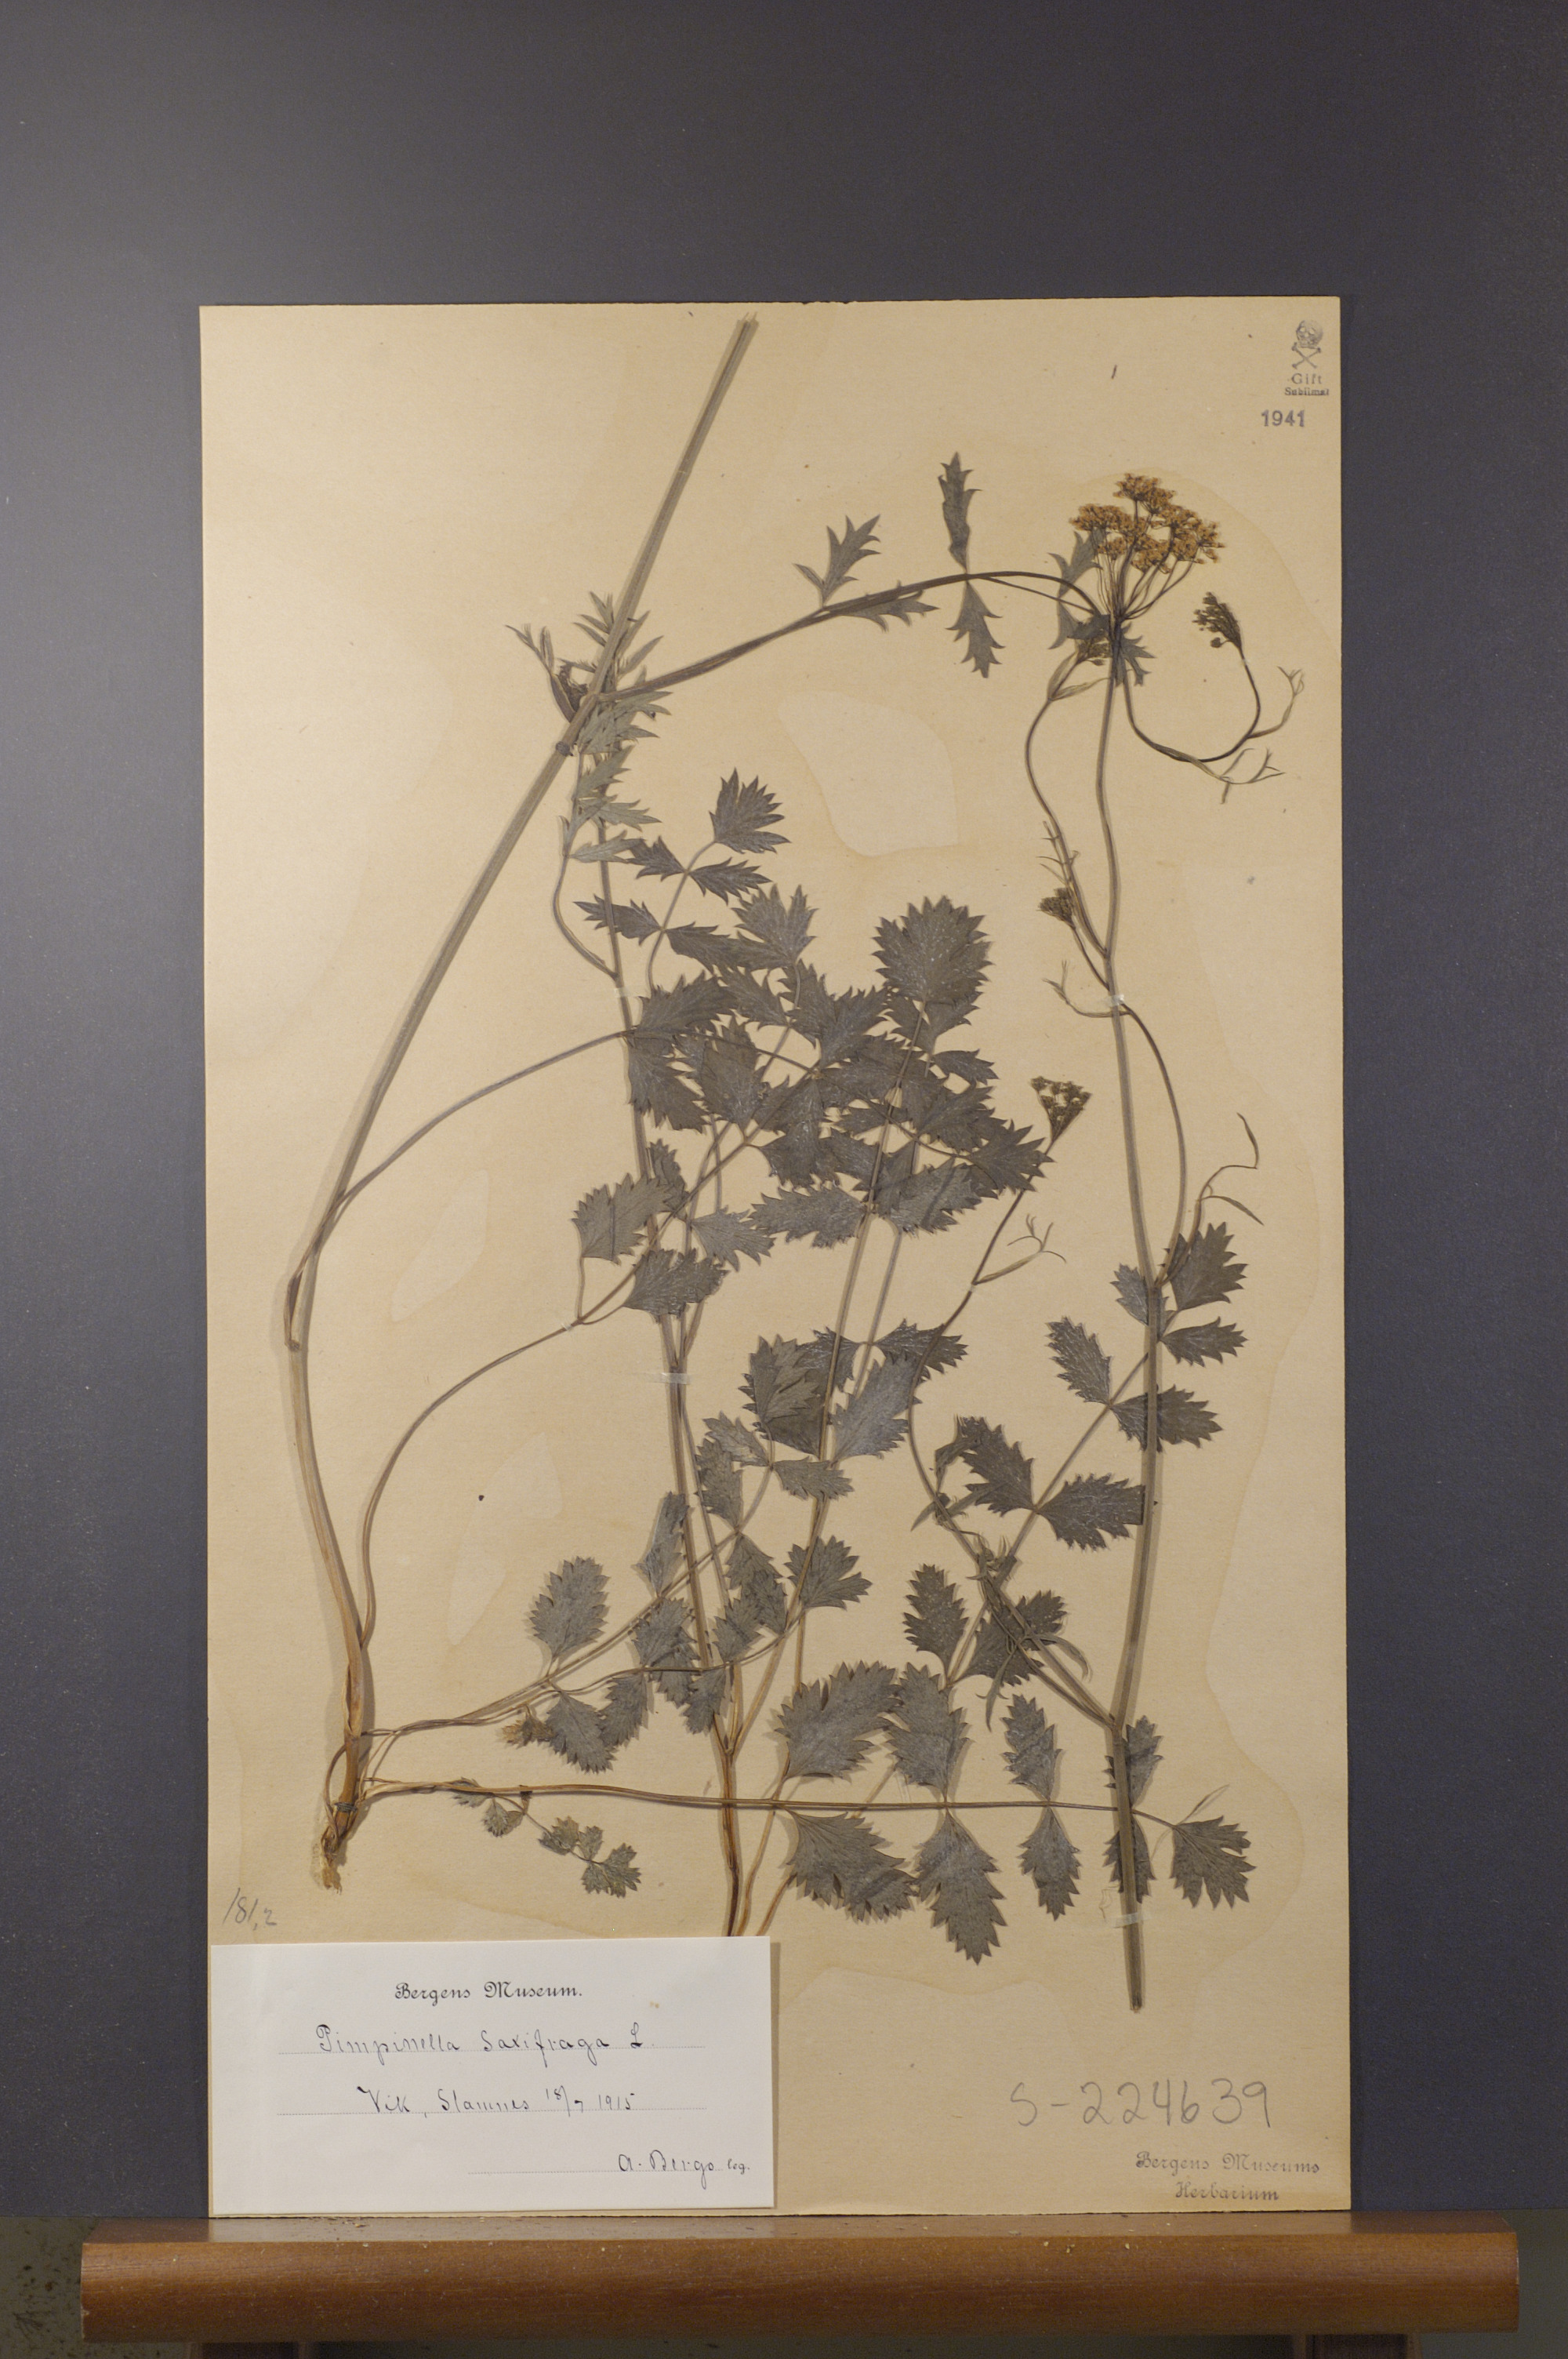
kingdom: Plantae
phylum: Tracheophyta
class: Magnoliopsida
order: Apiales
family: Apiaceae
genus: Pimpinella
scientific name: Pimpinella saxifraga
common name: Burnet-saxifrage
